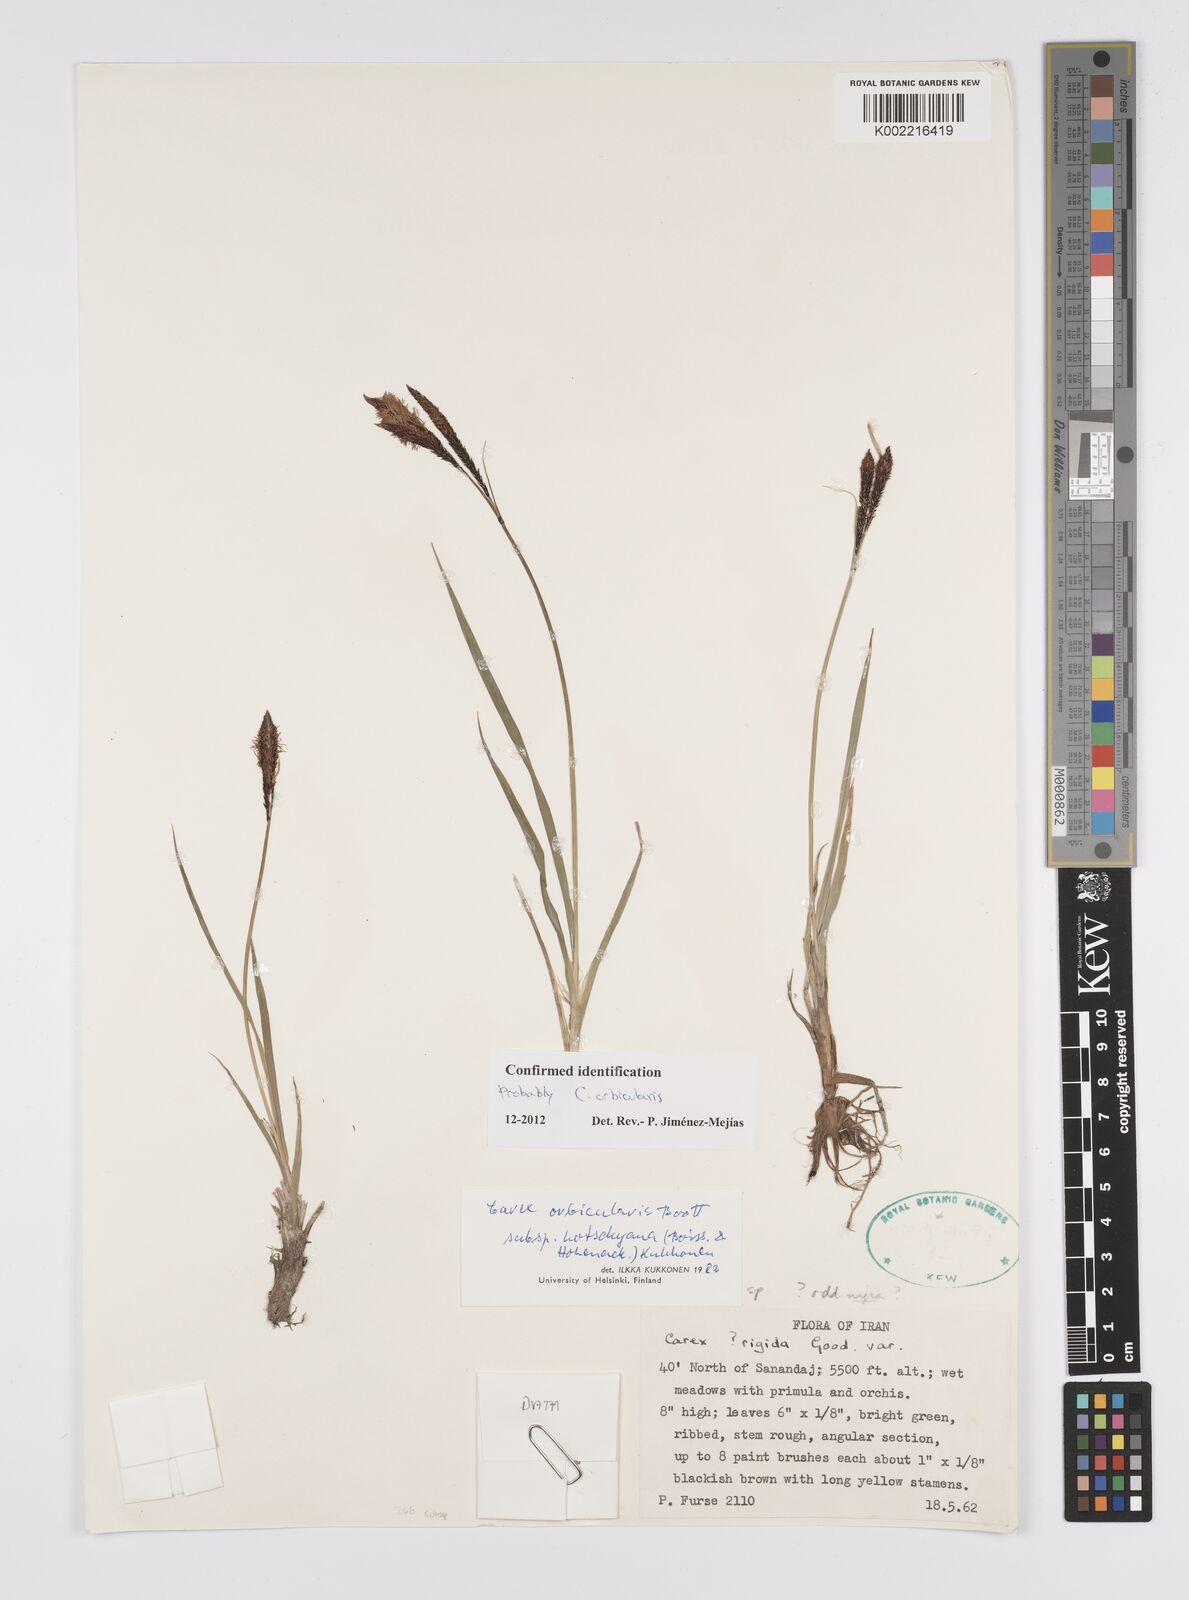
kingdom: Plantae
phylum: Tracheophyta
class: Liliopsida
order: Poales
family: Cyperaceae
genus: Carex
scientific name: Carex orbicularis
